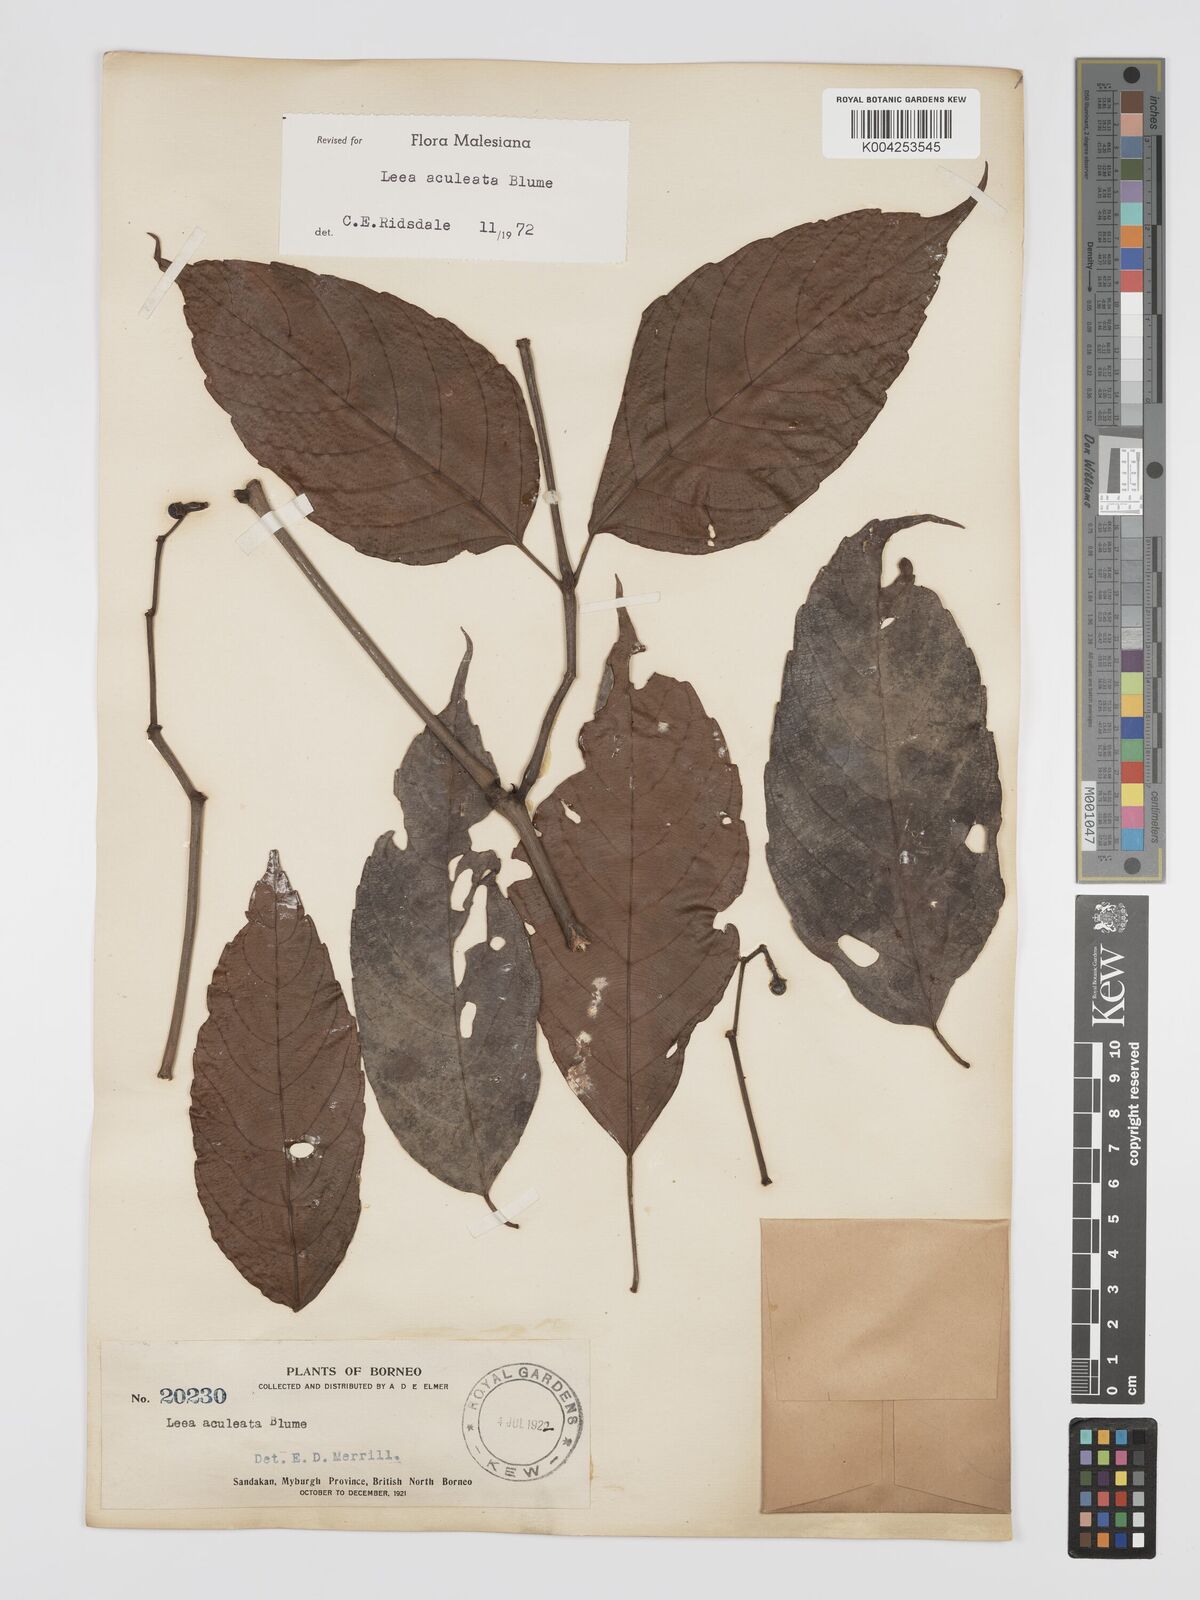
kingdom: Plantae
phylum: Tracheophyta
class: Magnoliopsida
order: Vitales
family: Vitaceae
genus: Leea
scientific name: Leea aculeata
